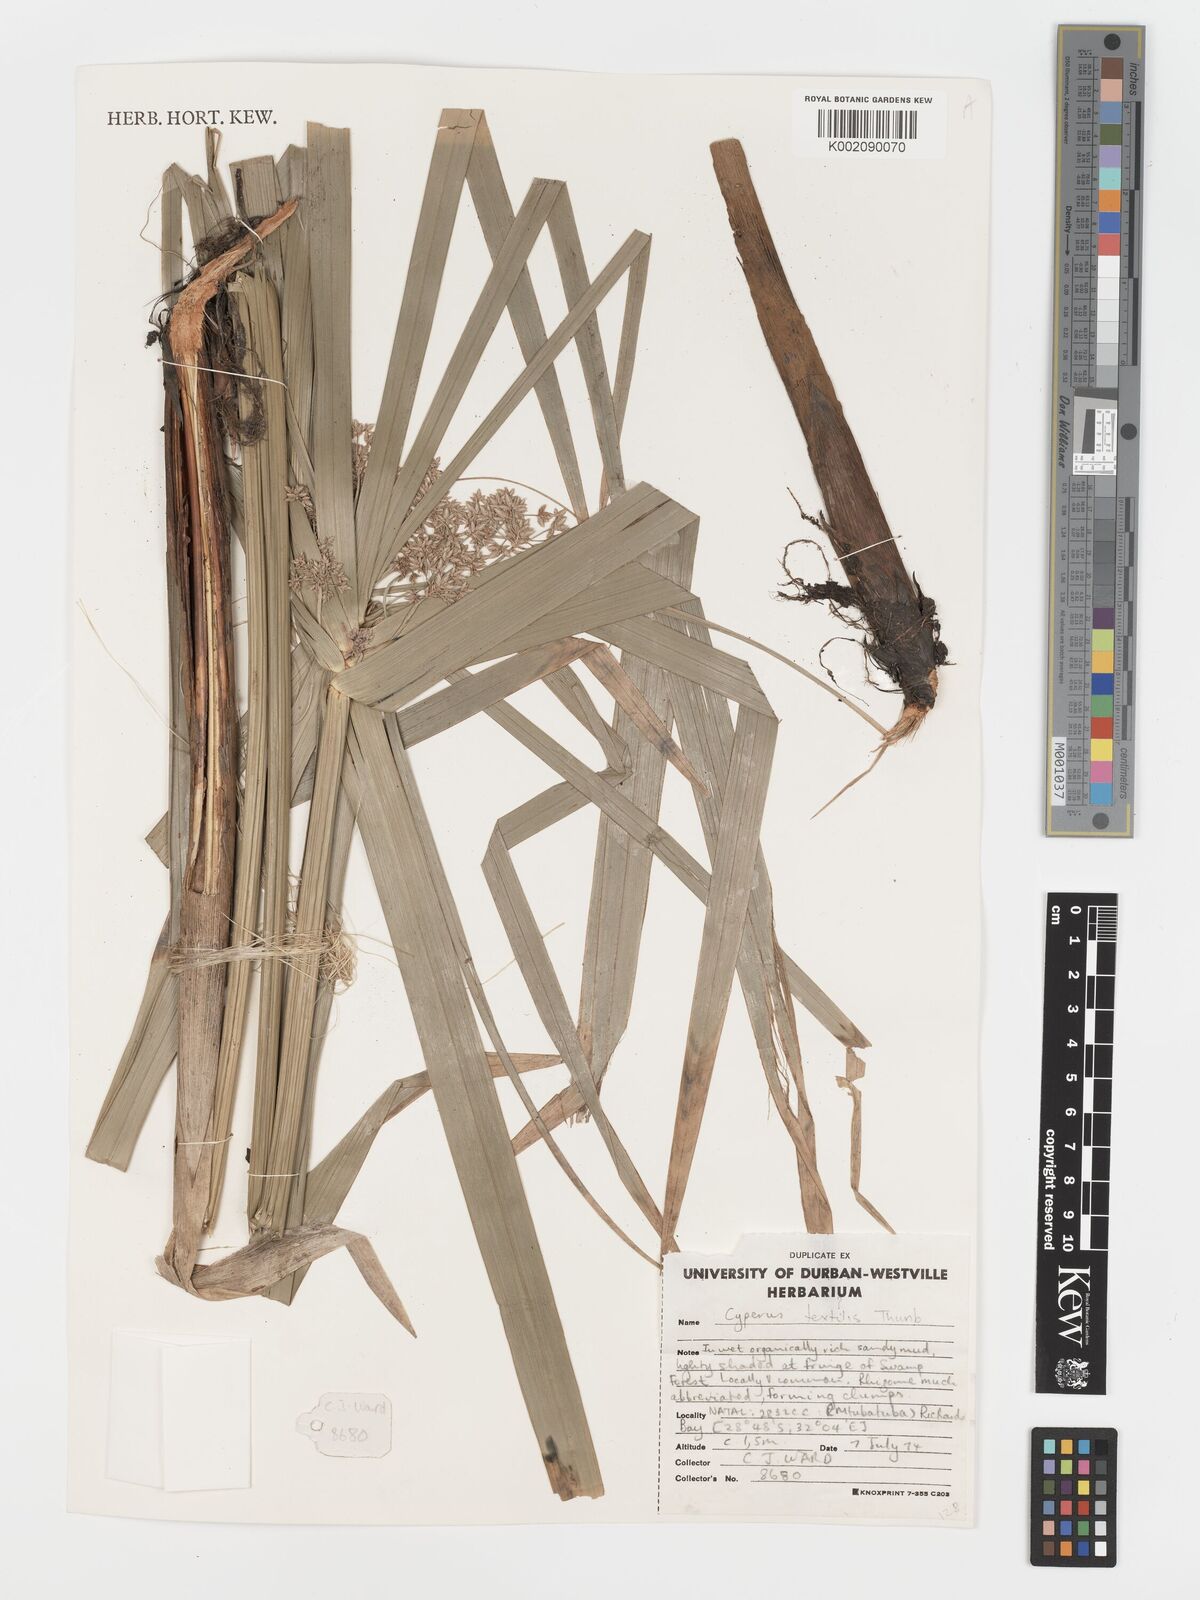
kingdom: Plantae
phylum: Tracheophyta
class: Liliopsida
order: Poales
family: Cyperaceae
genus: Cyperus
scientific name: Cyperus alternifolius
